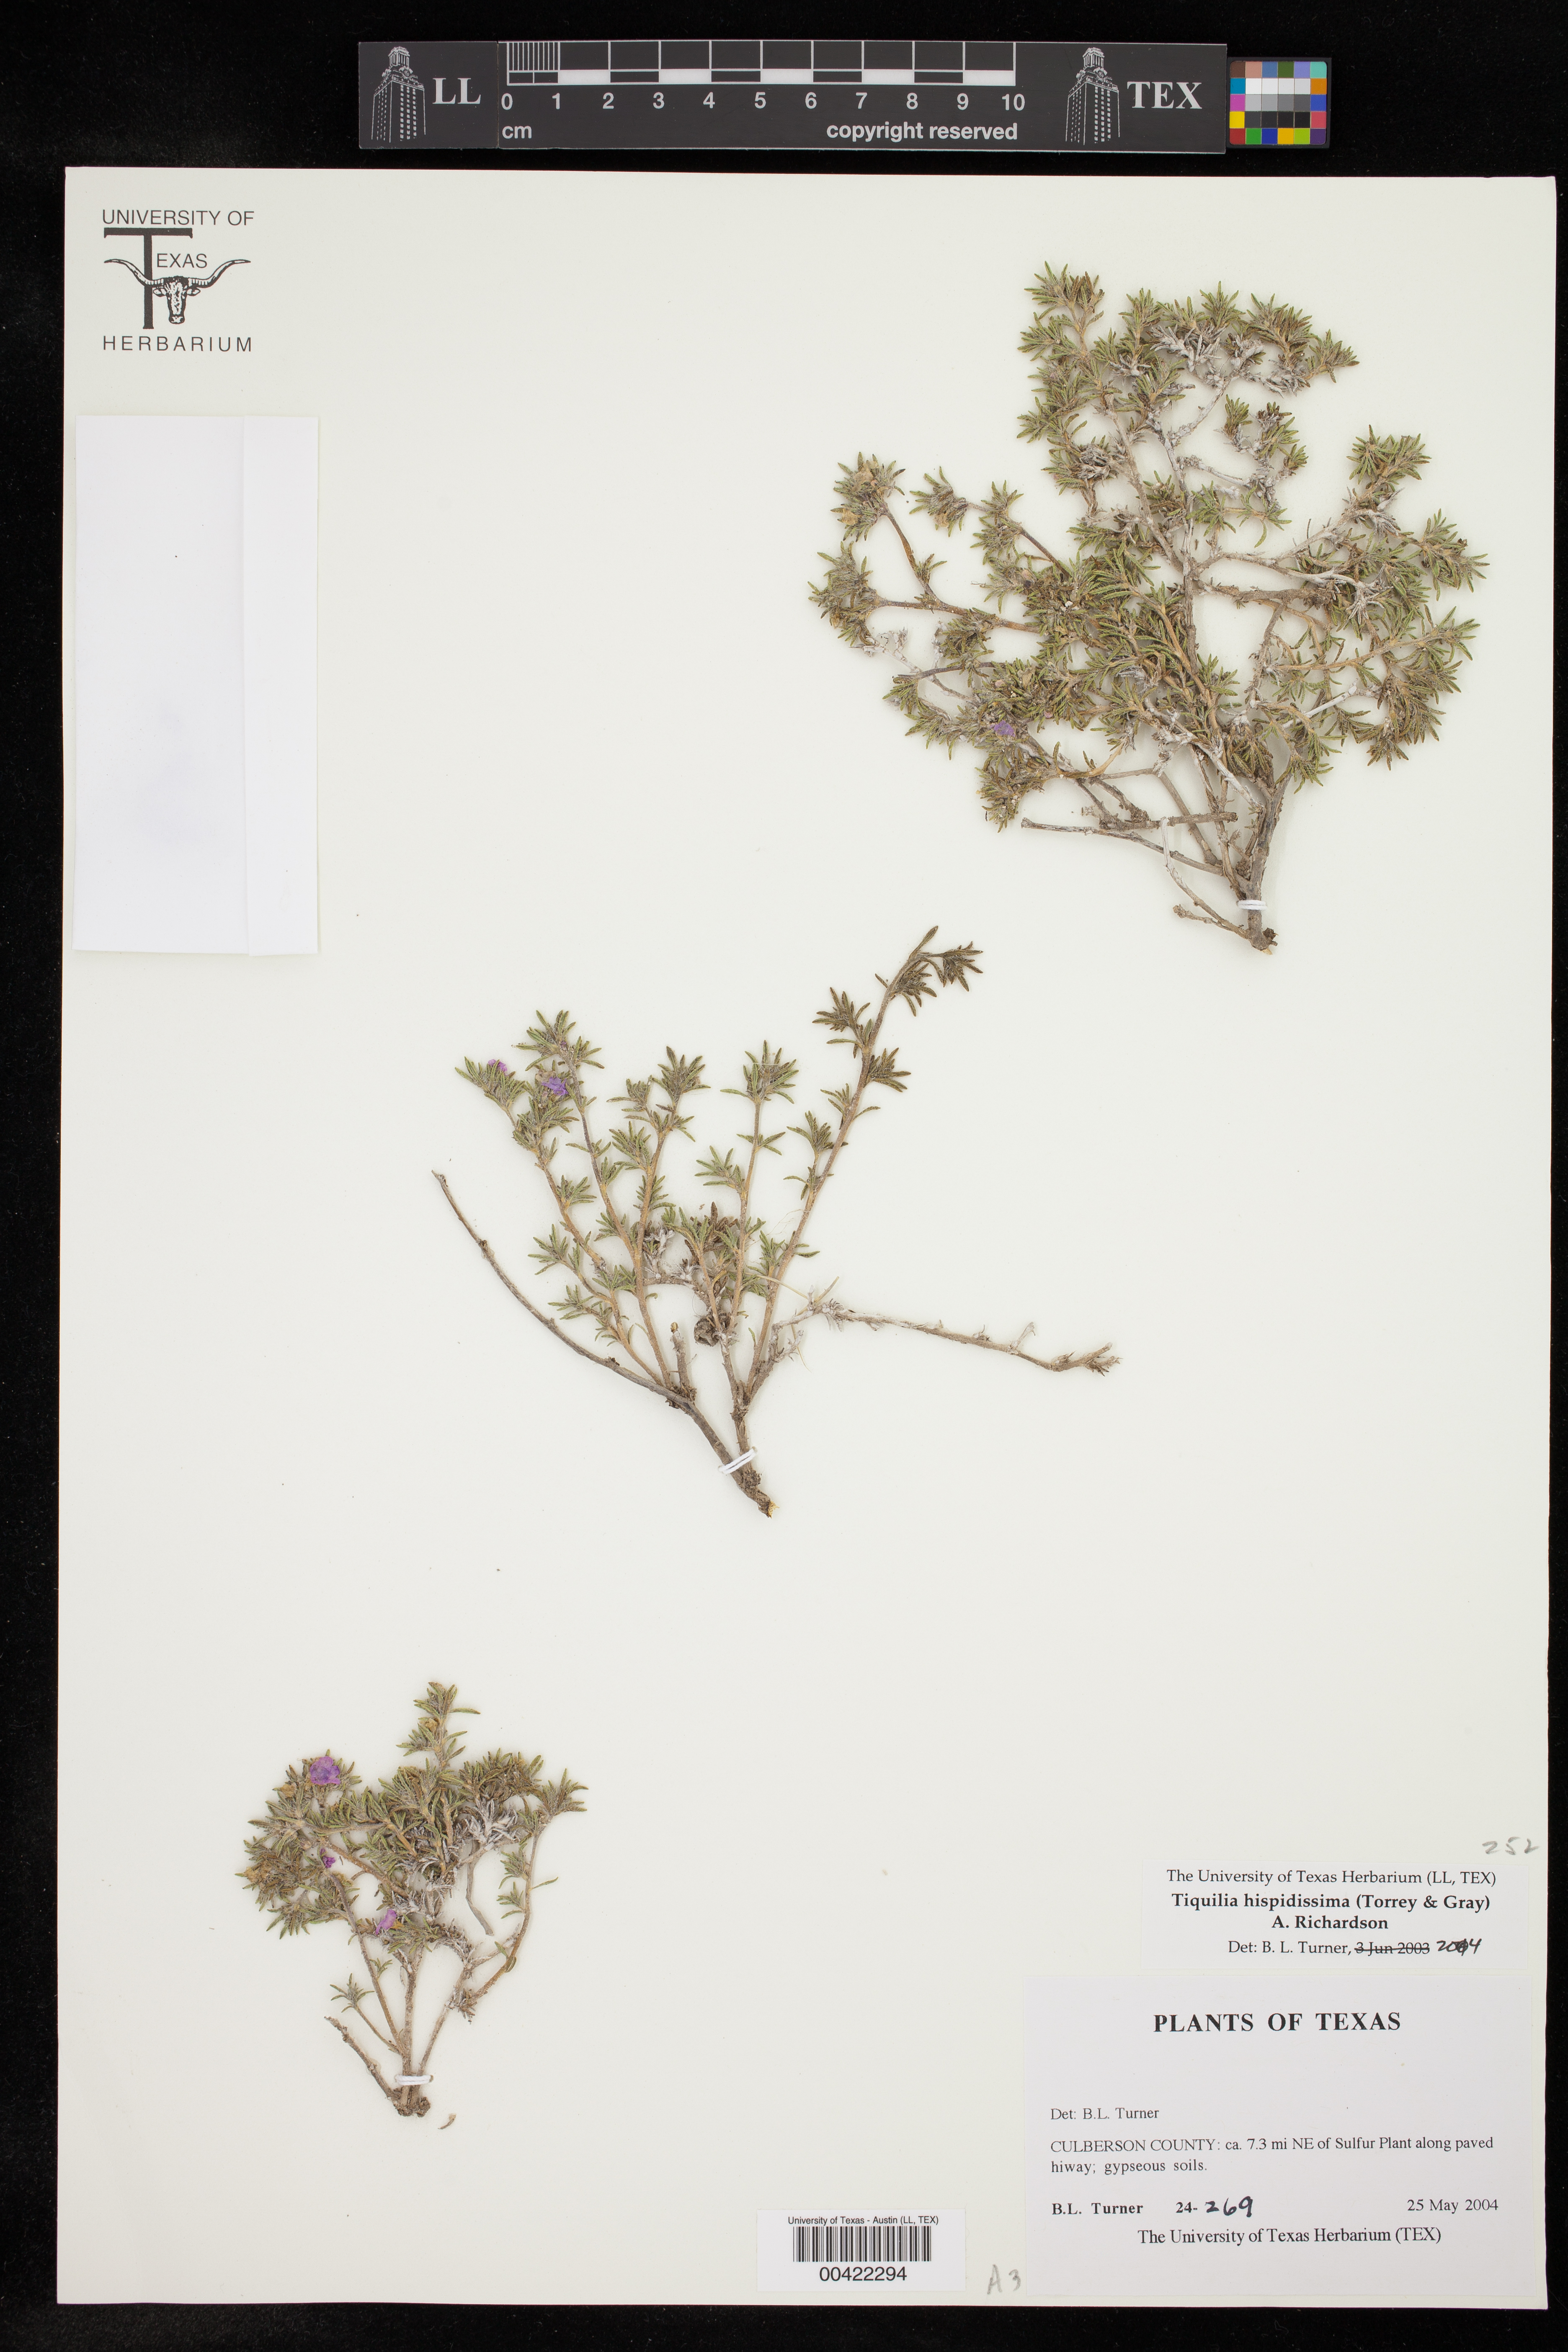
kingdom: Plantae
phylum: Tracheophyta
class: Magnoliopsida
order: Boraginales
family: Ehretiaceae
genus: Tiquilia
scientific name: Tiquilia hispidissima
